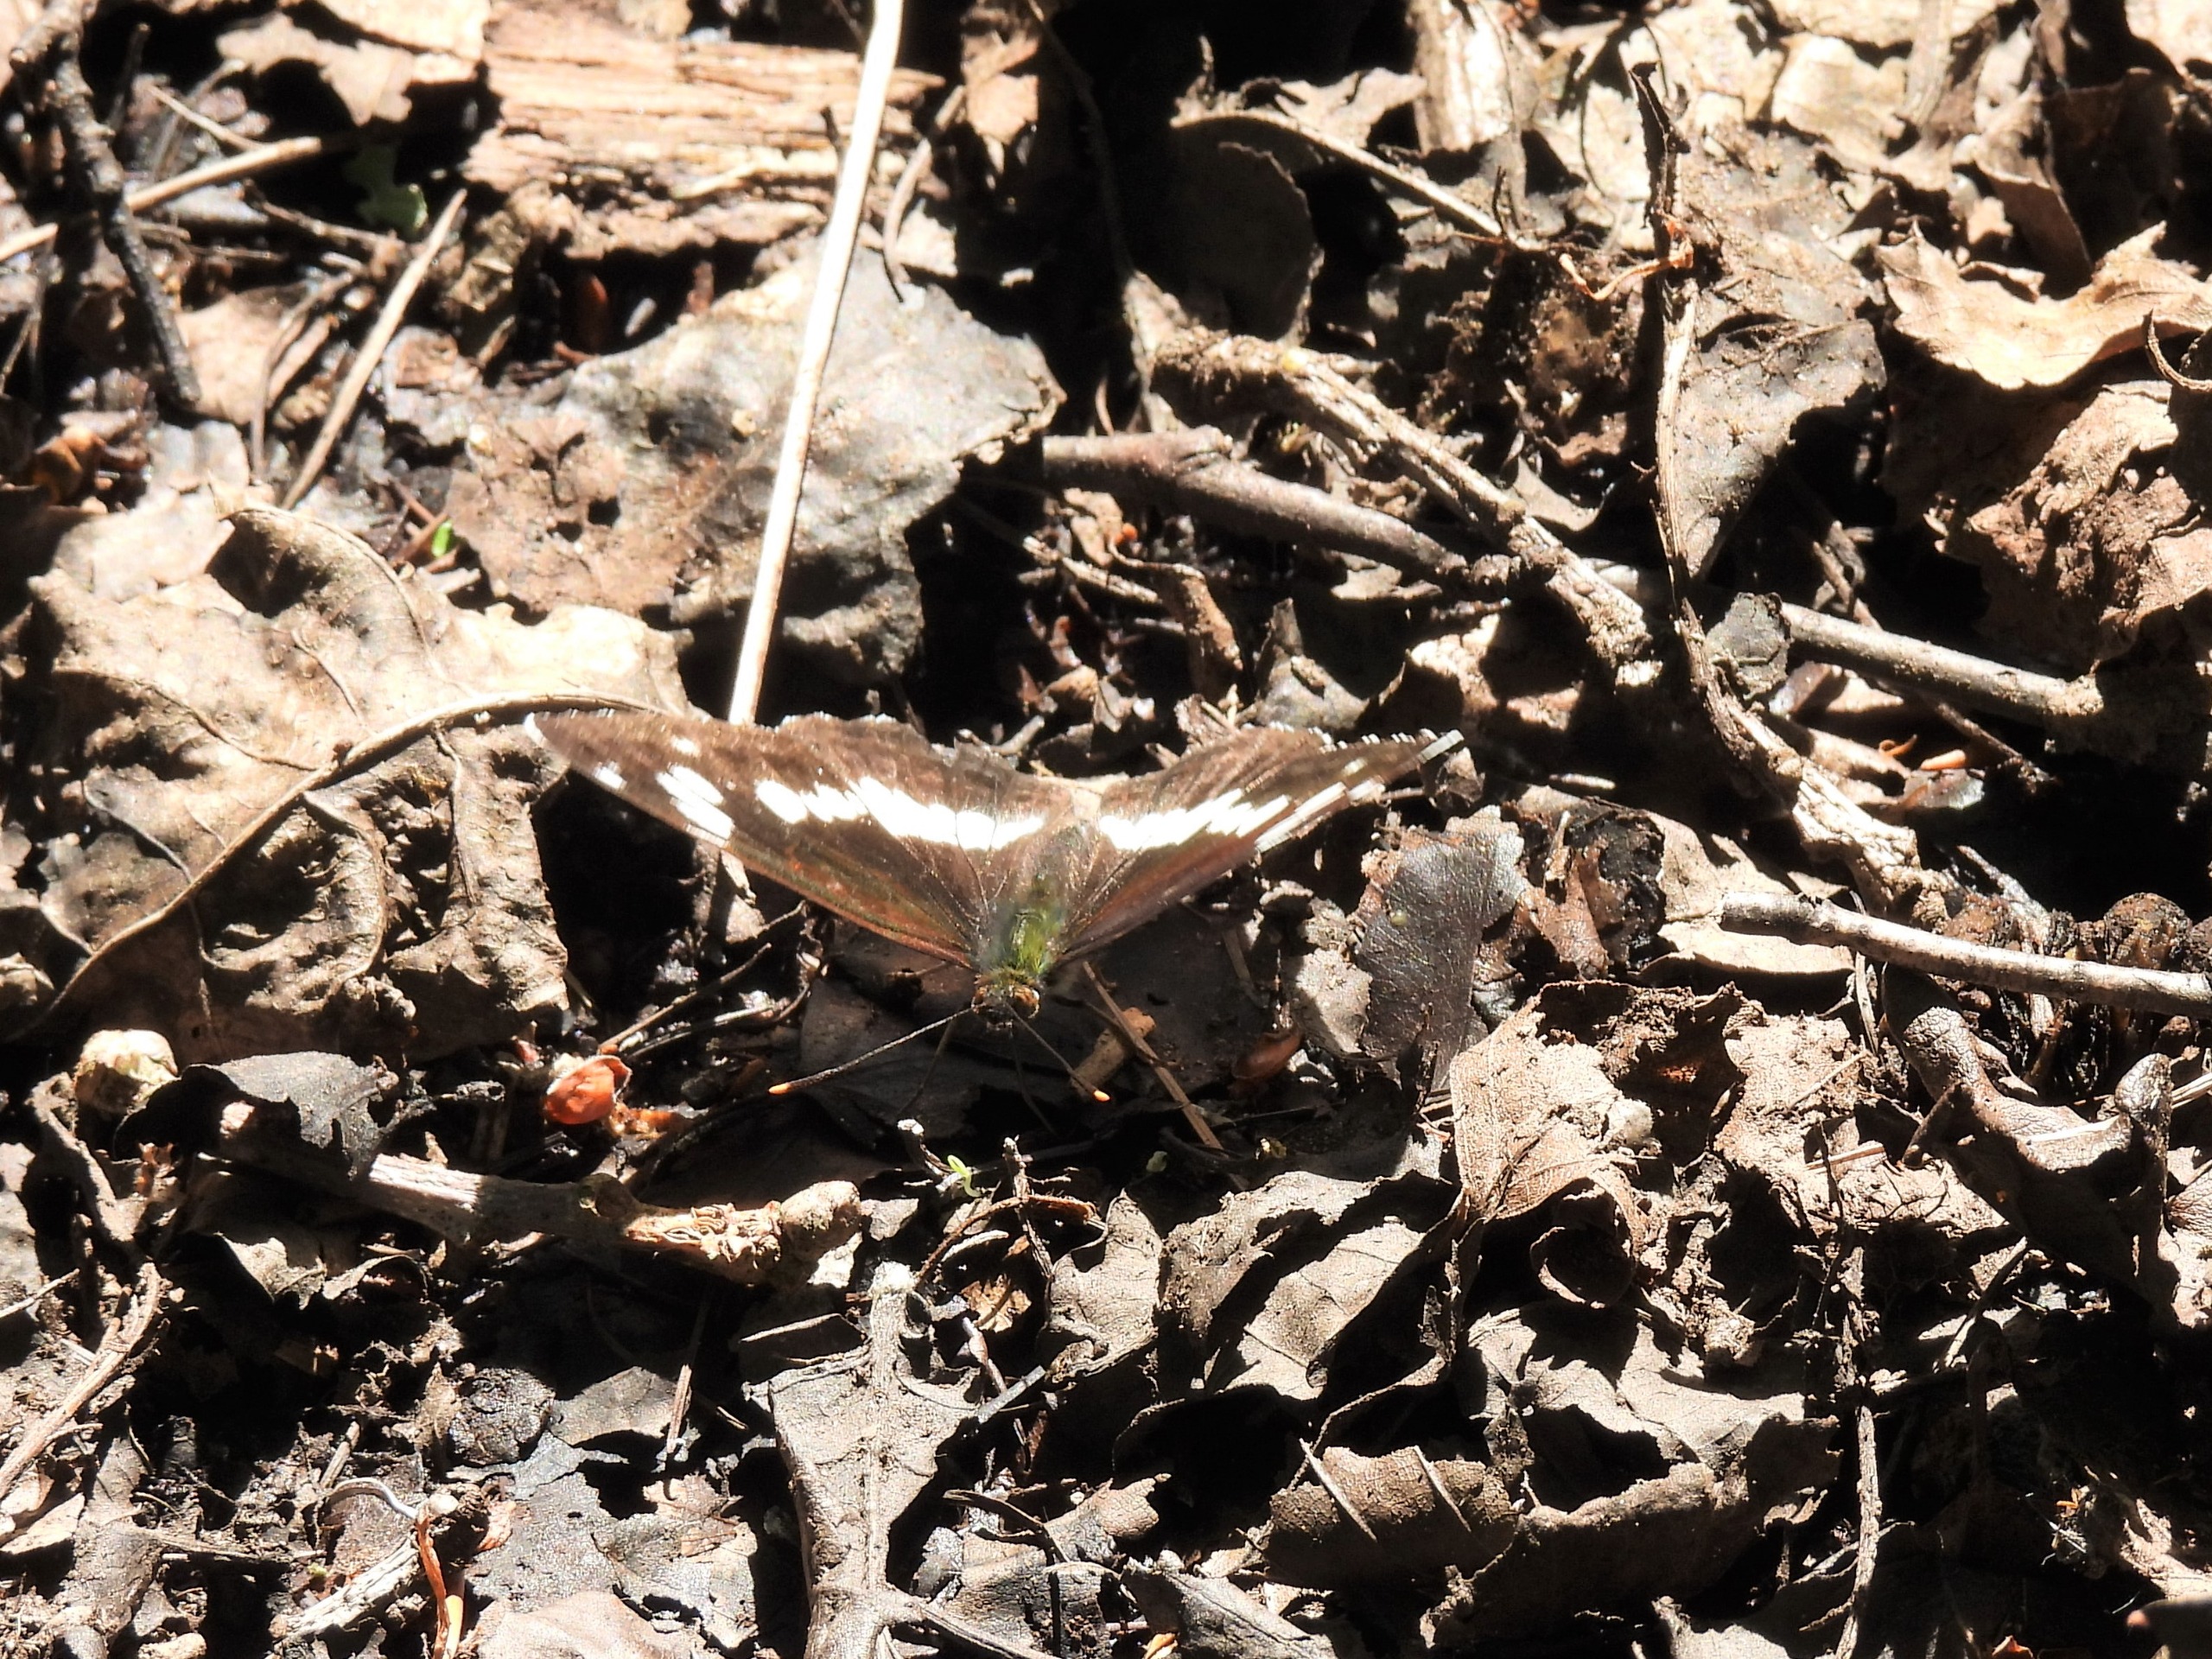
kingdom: Animalia
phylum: Arthropoda
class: Insecta
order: Lepidoptera
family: Nymphalidae
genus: Ladoga
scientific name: Ladoga camilla
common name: Hvid admiral
